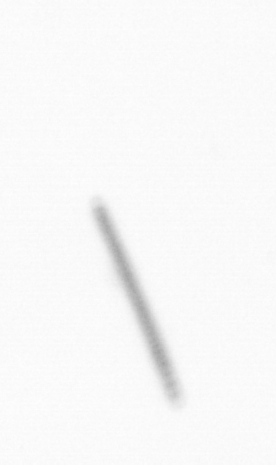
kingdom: Chromista
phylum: Ochrophyta
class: Bacillariophyceae
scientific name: Bacillariophyceae
